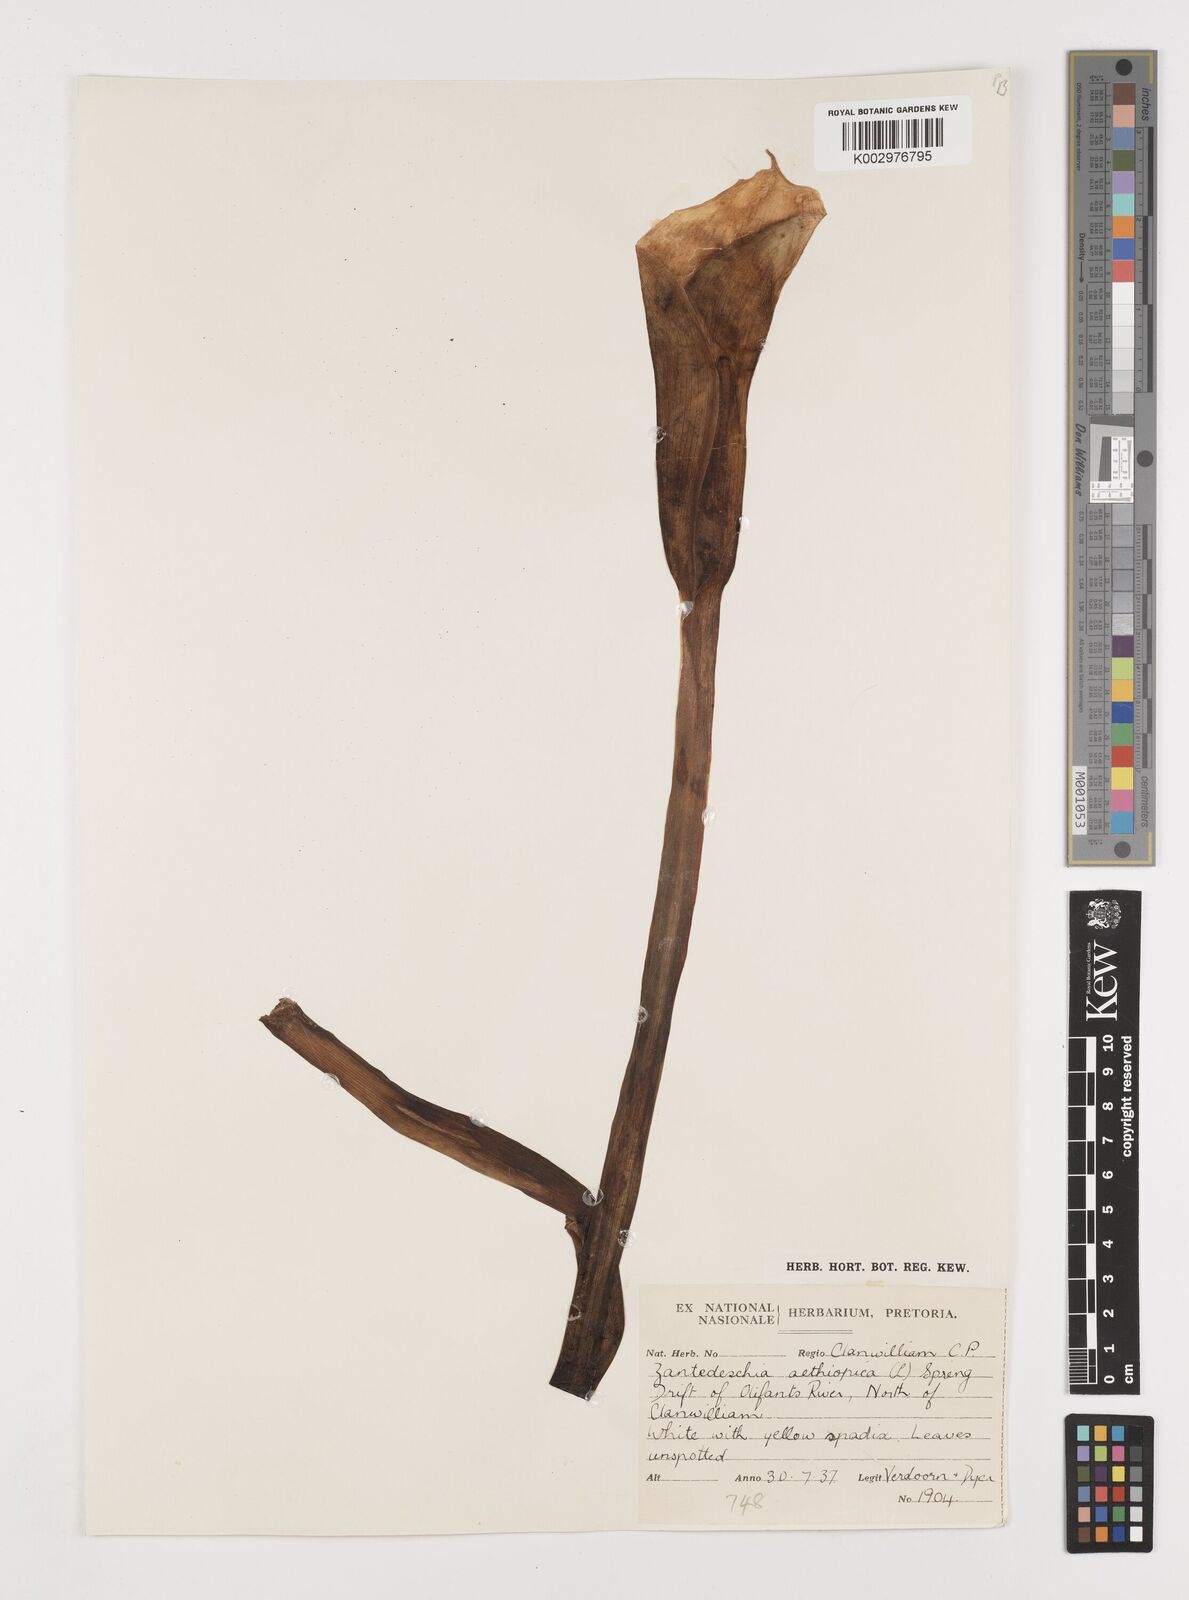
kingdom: Plantae
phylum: Tracheophyta
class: Liliopsida
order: Alismatales
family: Araceae
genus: Zantedeschia
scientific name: Zantedeschia aethiopica
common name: Altar-lily
